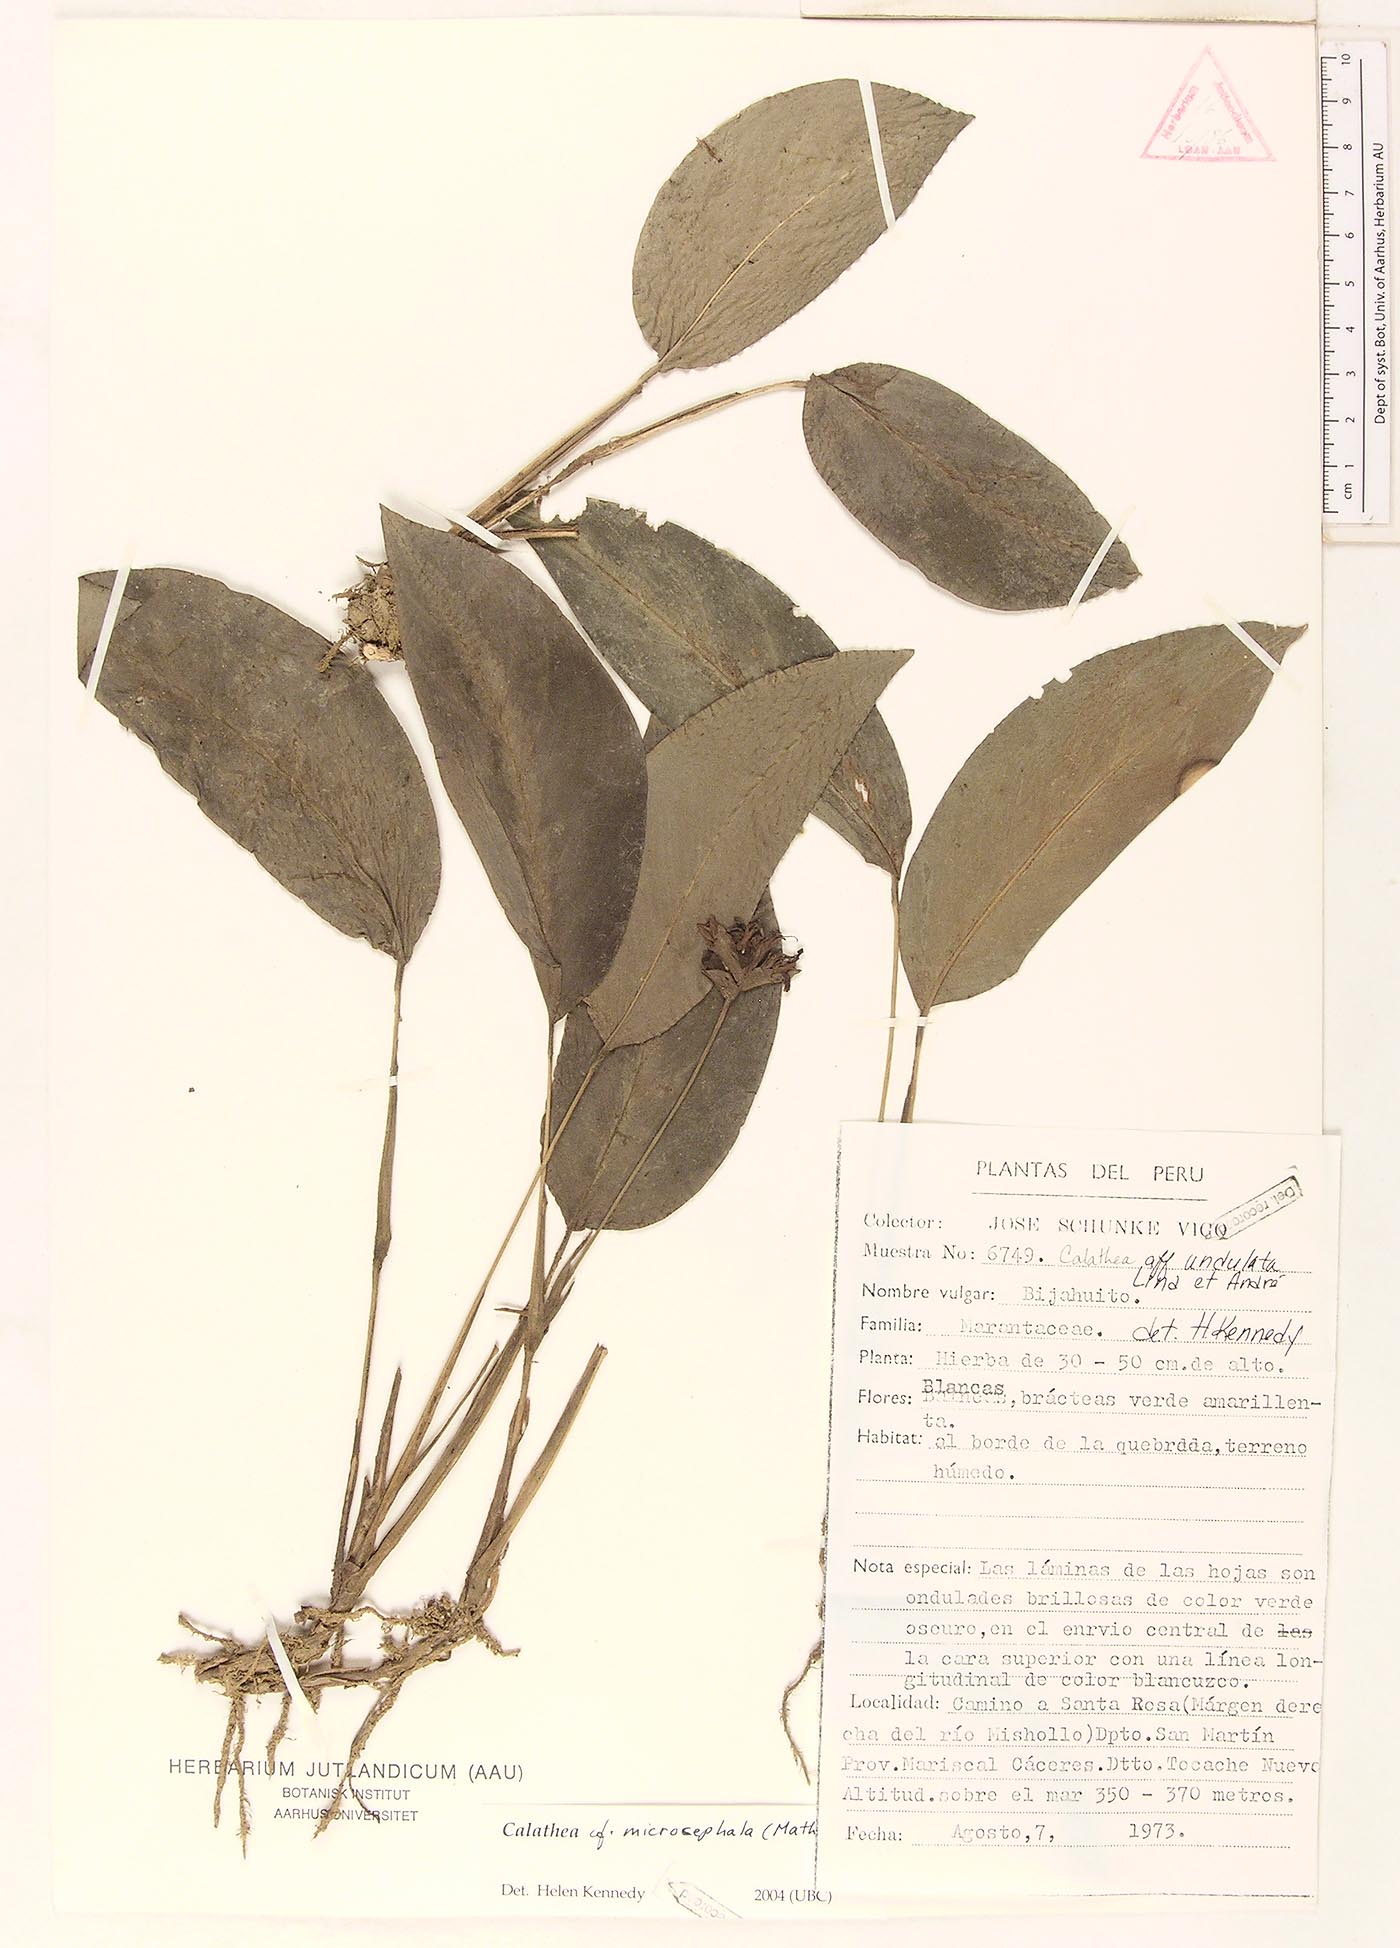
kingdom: Plantae
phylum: Tracheophyta
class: Liliopsida
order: Zingiberales
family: Marantaceae
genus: Goeppertia
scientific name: Goeppertia microcephala
